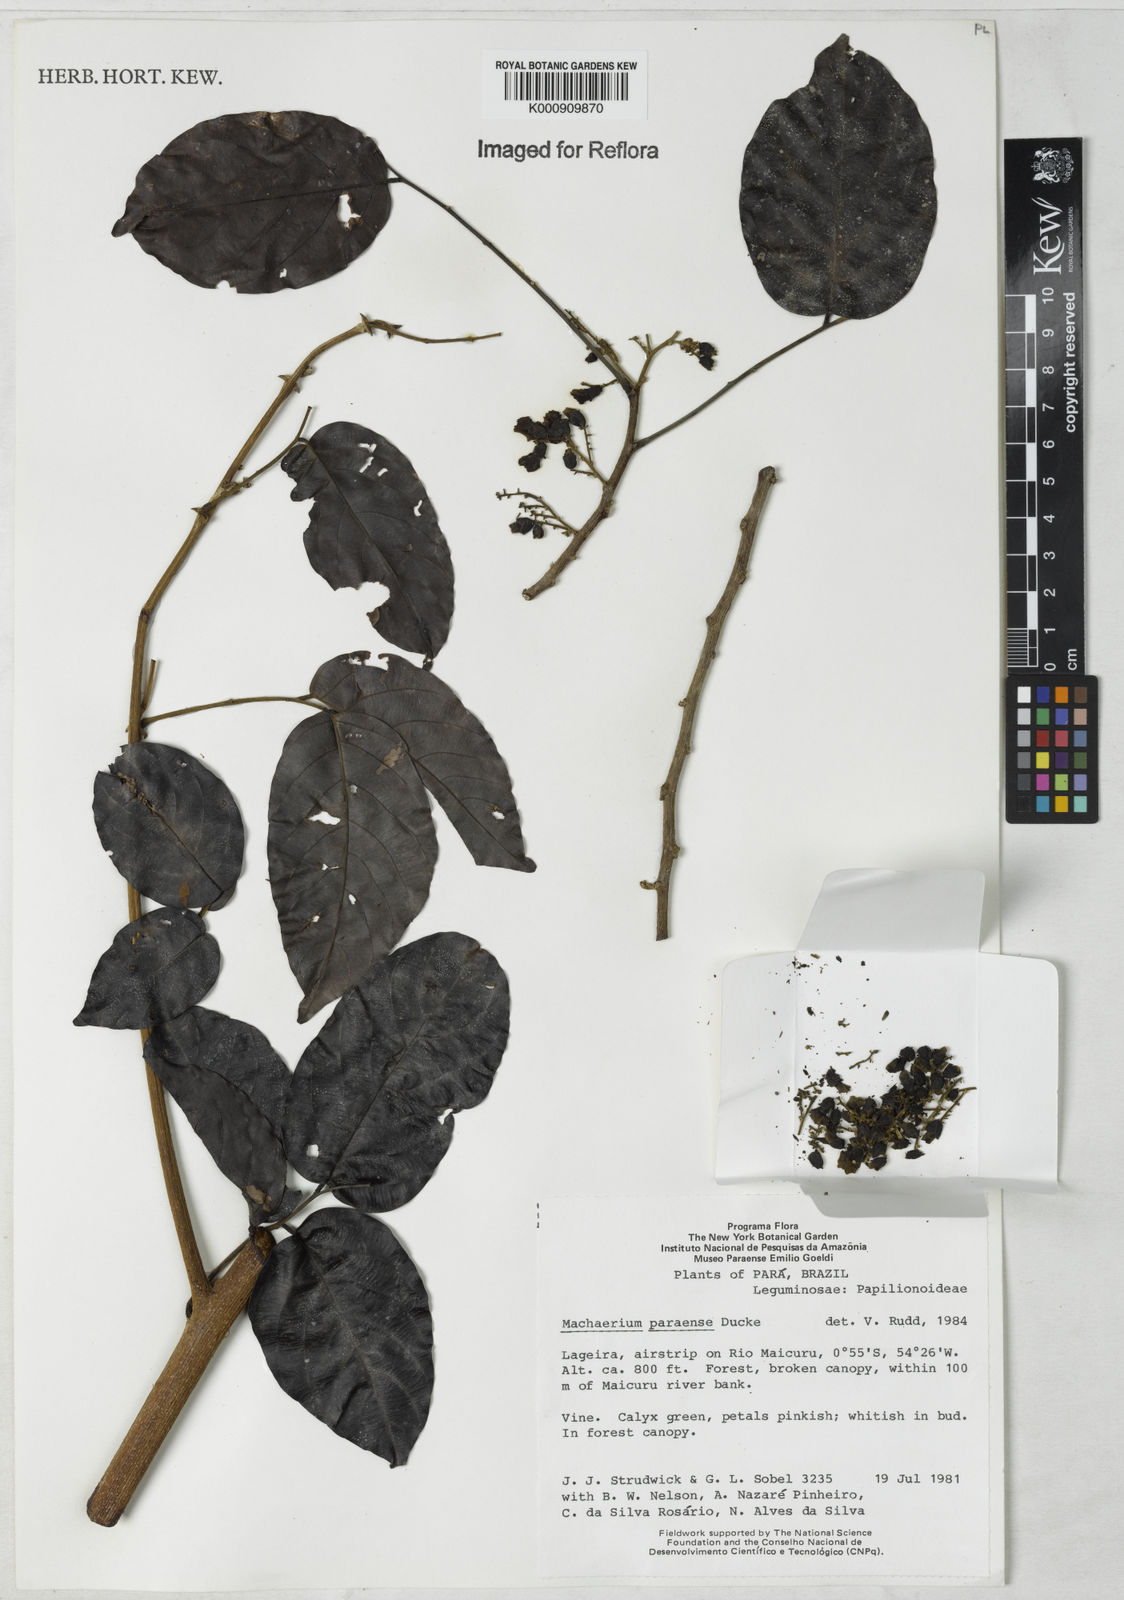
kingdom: Plantae
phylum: Tracheophyta
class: Magnoliopsida
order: Fabales
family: Fabaceae
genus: Machaerium
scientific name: Machaerium paraense
